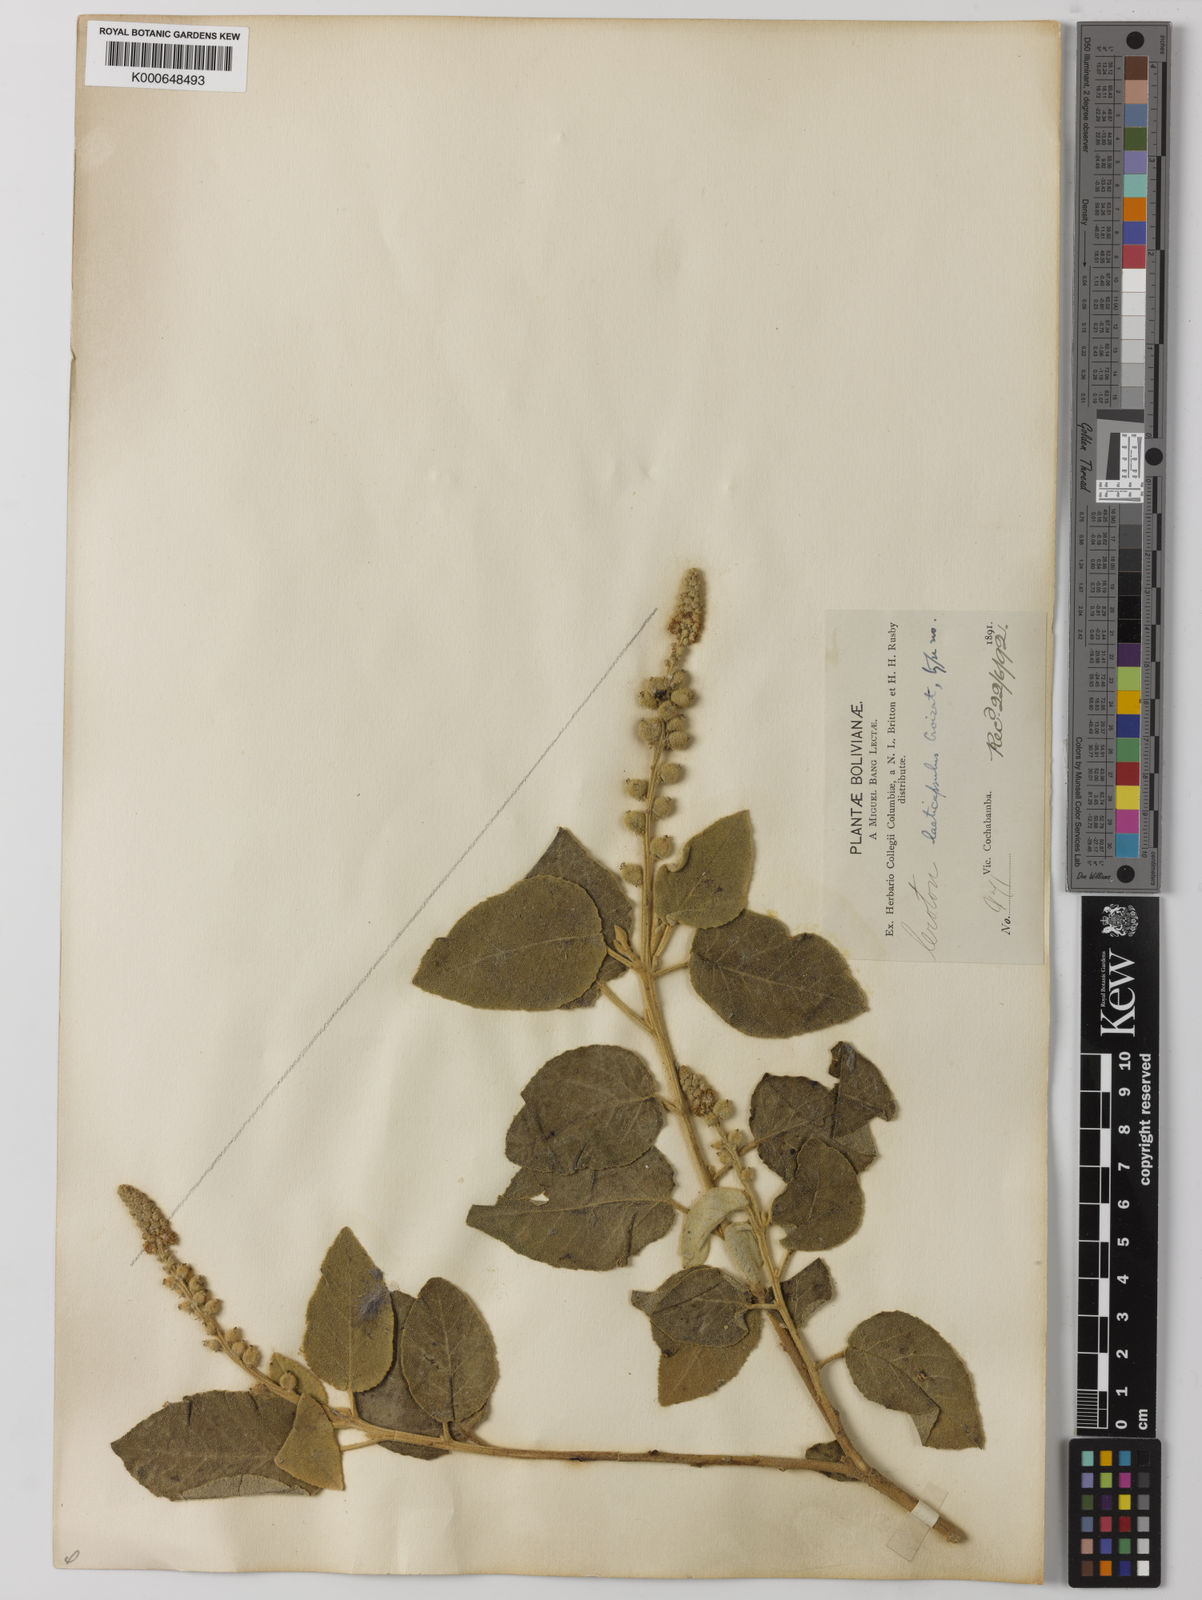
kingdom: Plantae
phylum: Tracheophyta
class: Magnoliopsida
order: Malpighiales
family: Euphorbiaceae
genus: Croton
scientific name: Croton laeticapsulus
